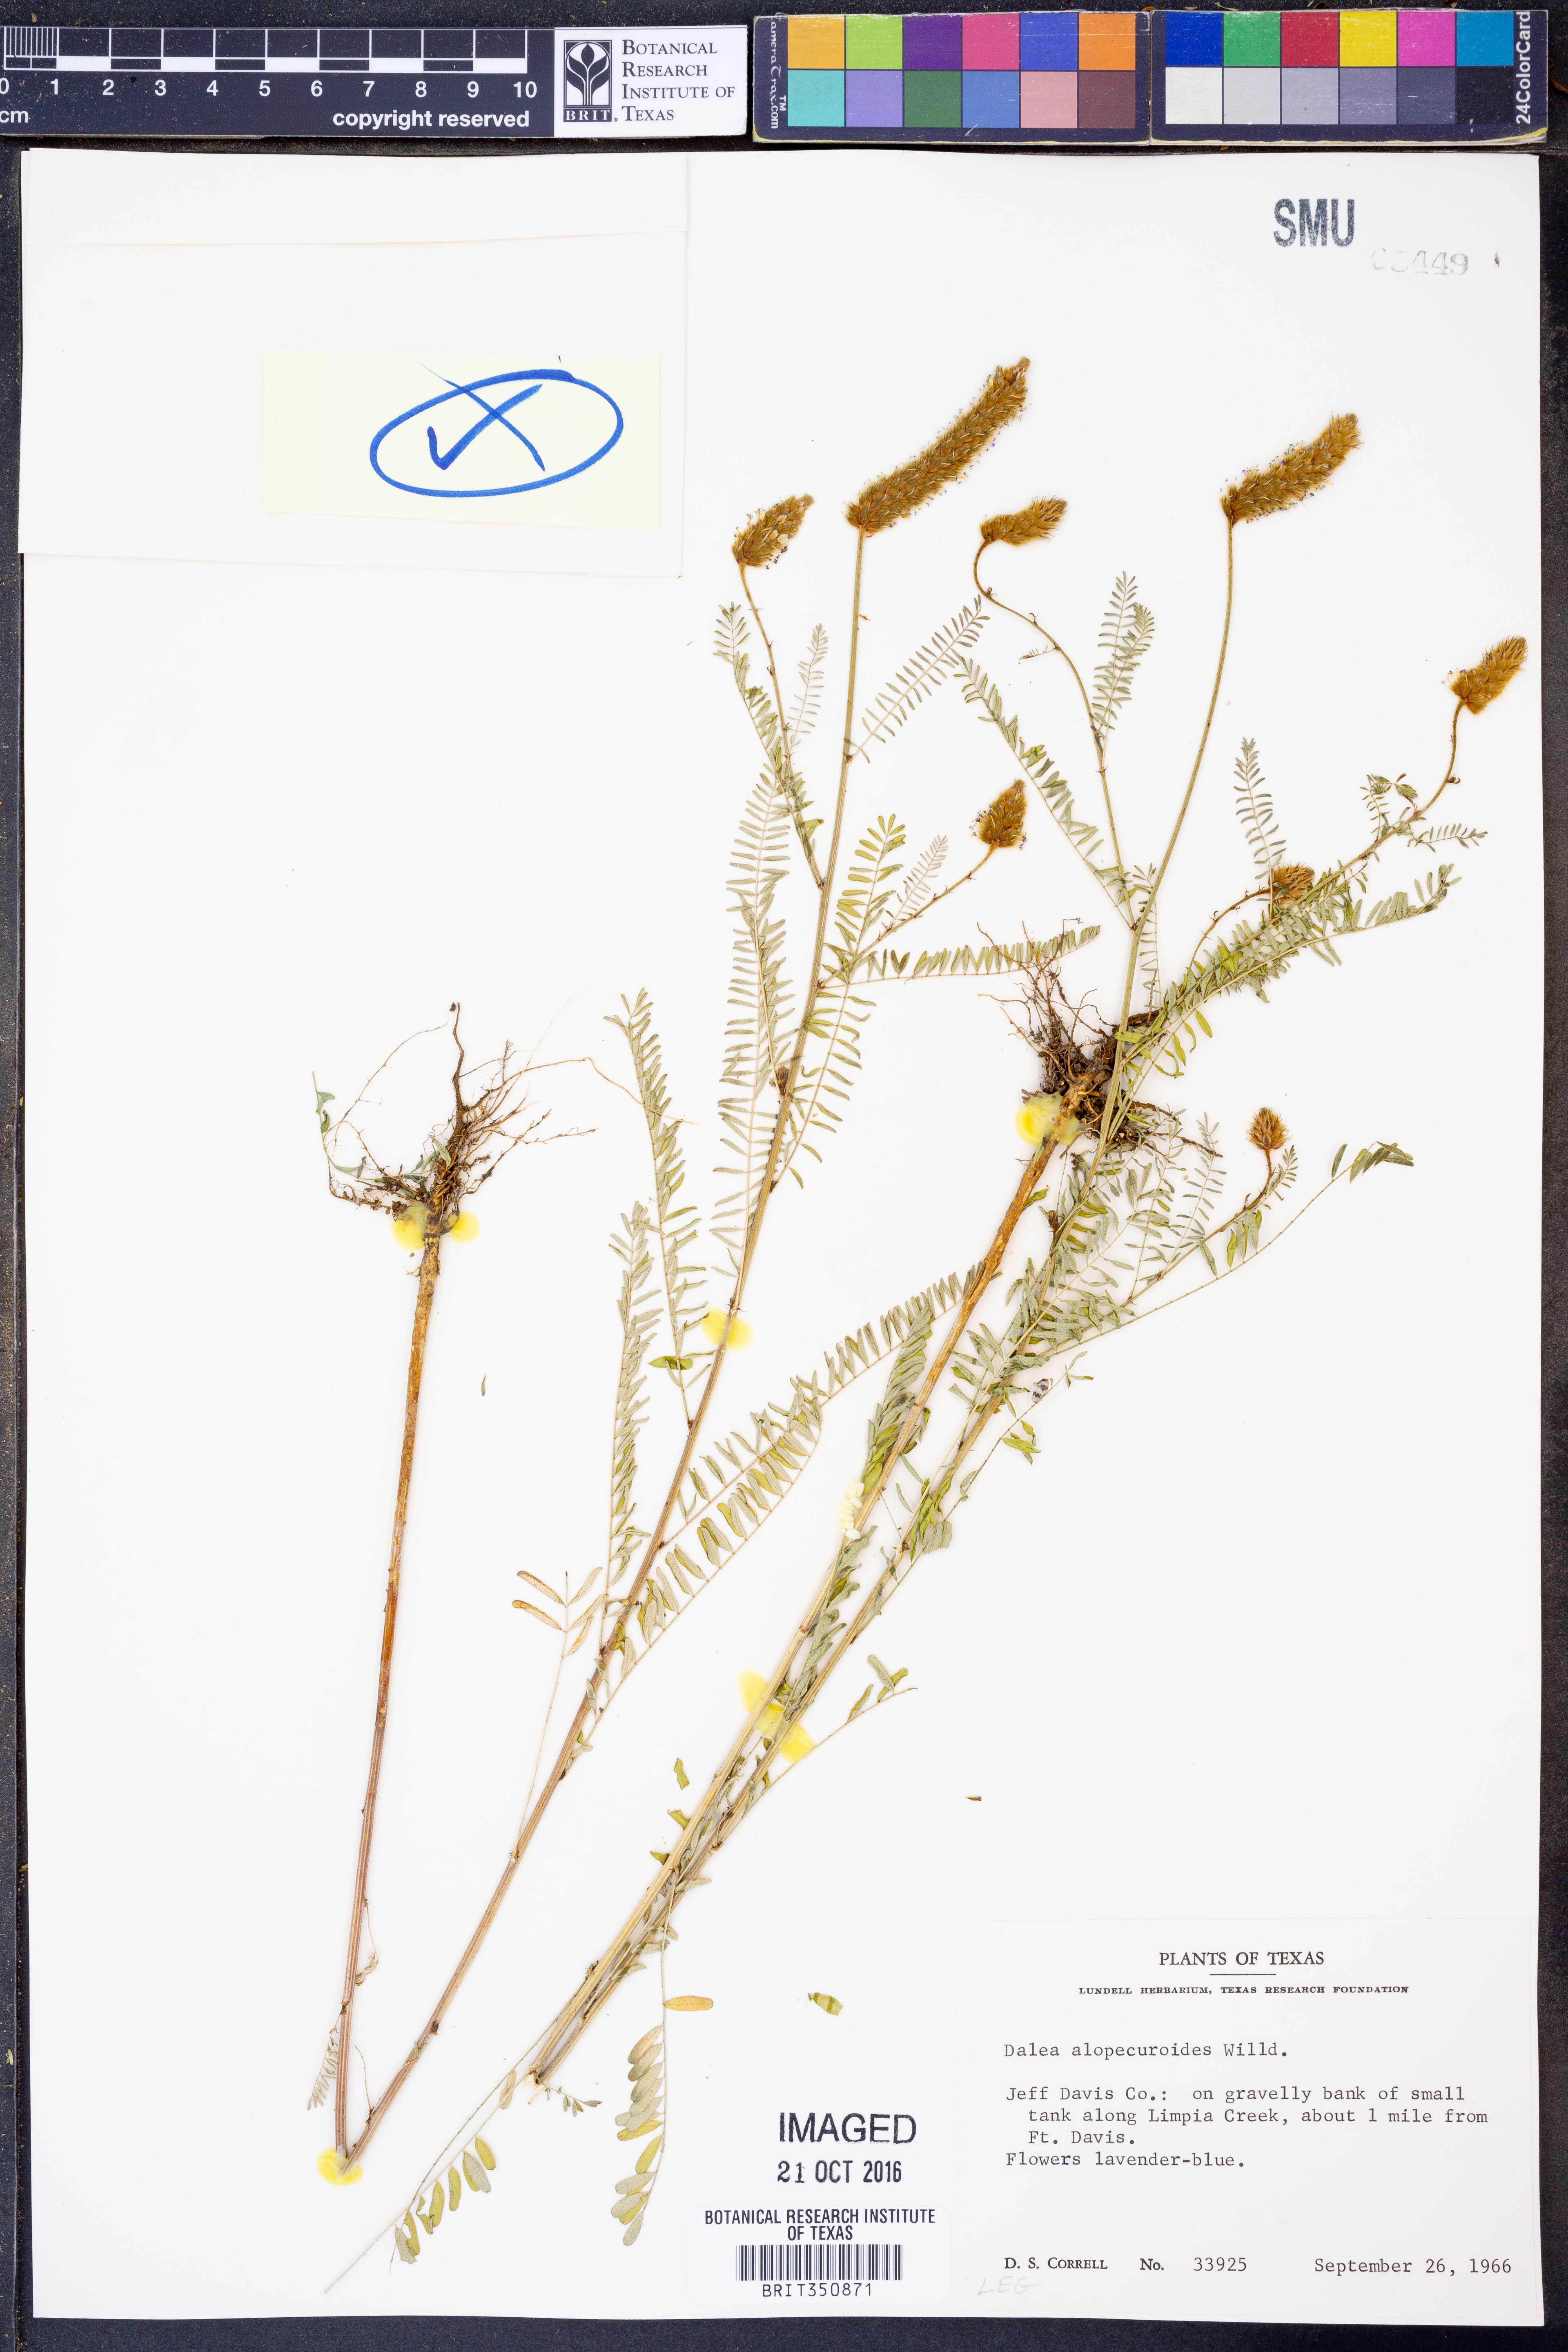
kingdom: Plantae
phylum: Tracheophyta
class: Magnoliopsida
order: Fabales
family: Fabaceae
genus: Dalea
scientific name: Dalea leporina
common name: Foxtail dalea
